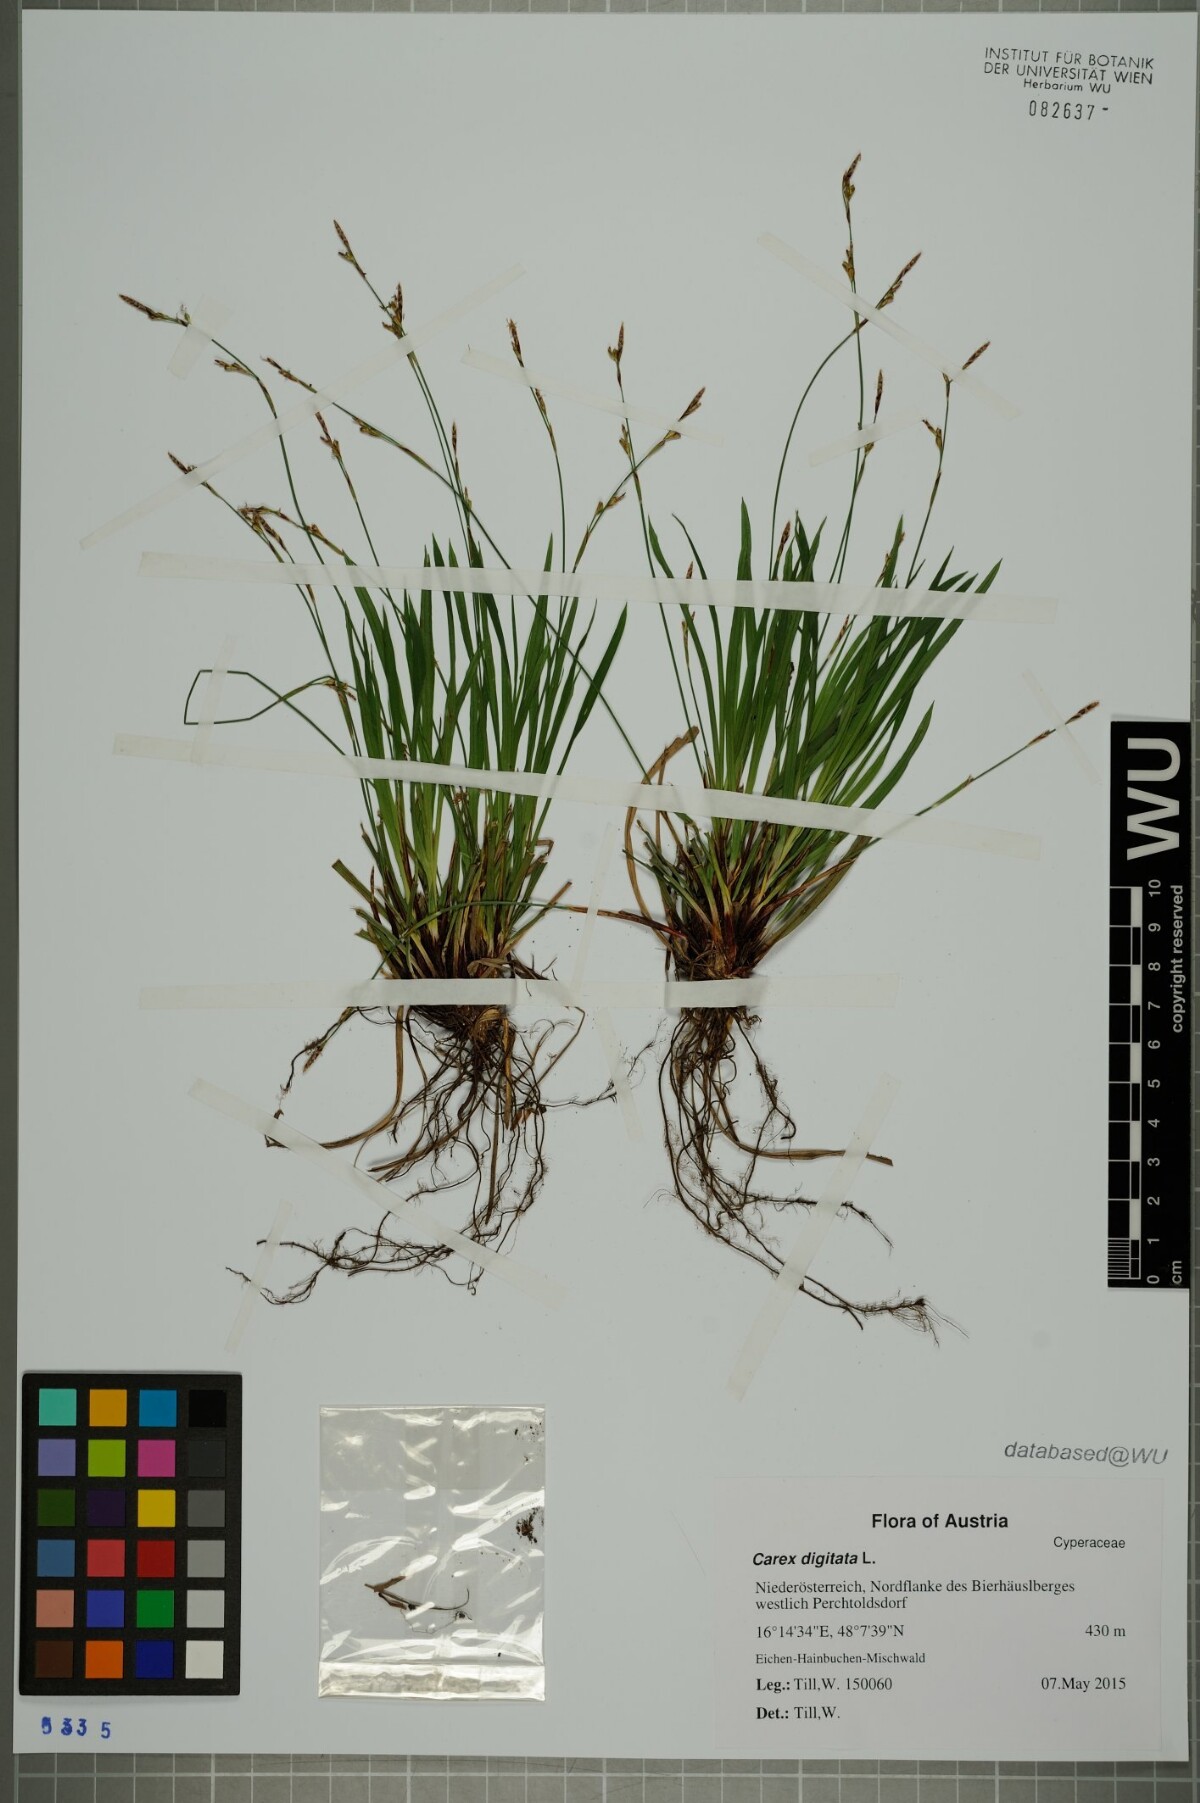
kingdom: Plantae
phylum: Tracheophyta
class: Liliopsida
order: Poales
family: Cyperaceae
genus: Carex
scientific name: Carex digitata
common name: Fingered sedge
